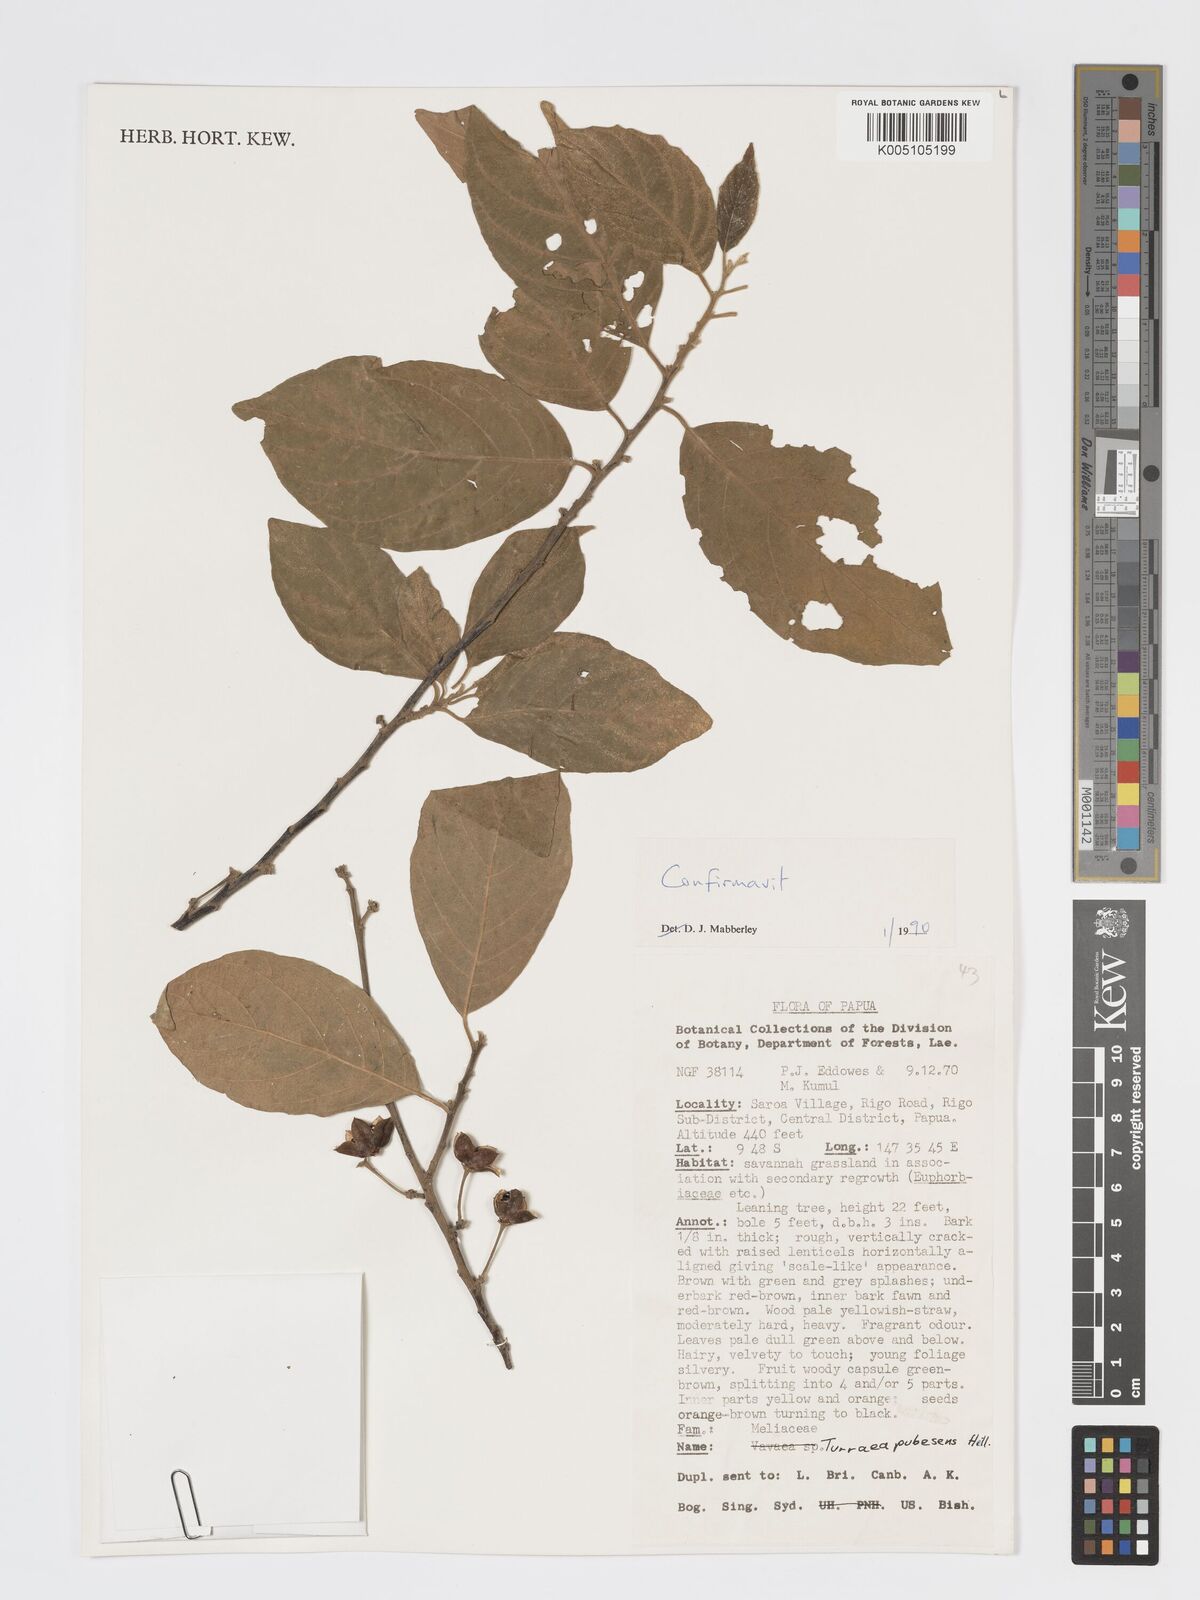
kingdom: Plantae
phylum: Tracheophyta
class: Magnoliopsida
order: Sapindales
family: Meliaceae
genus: Turraea
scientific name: Turraea
